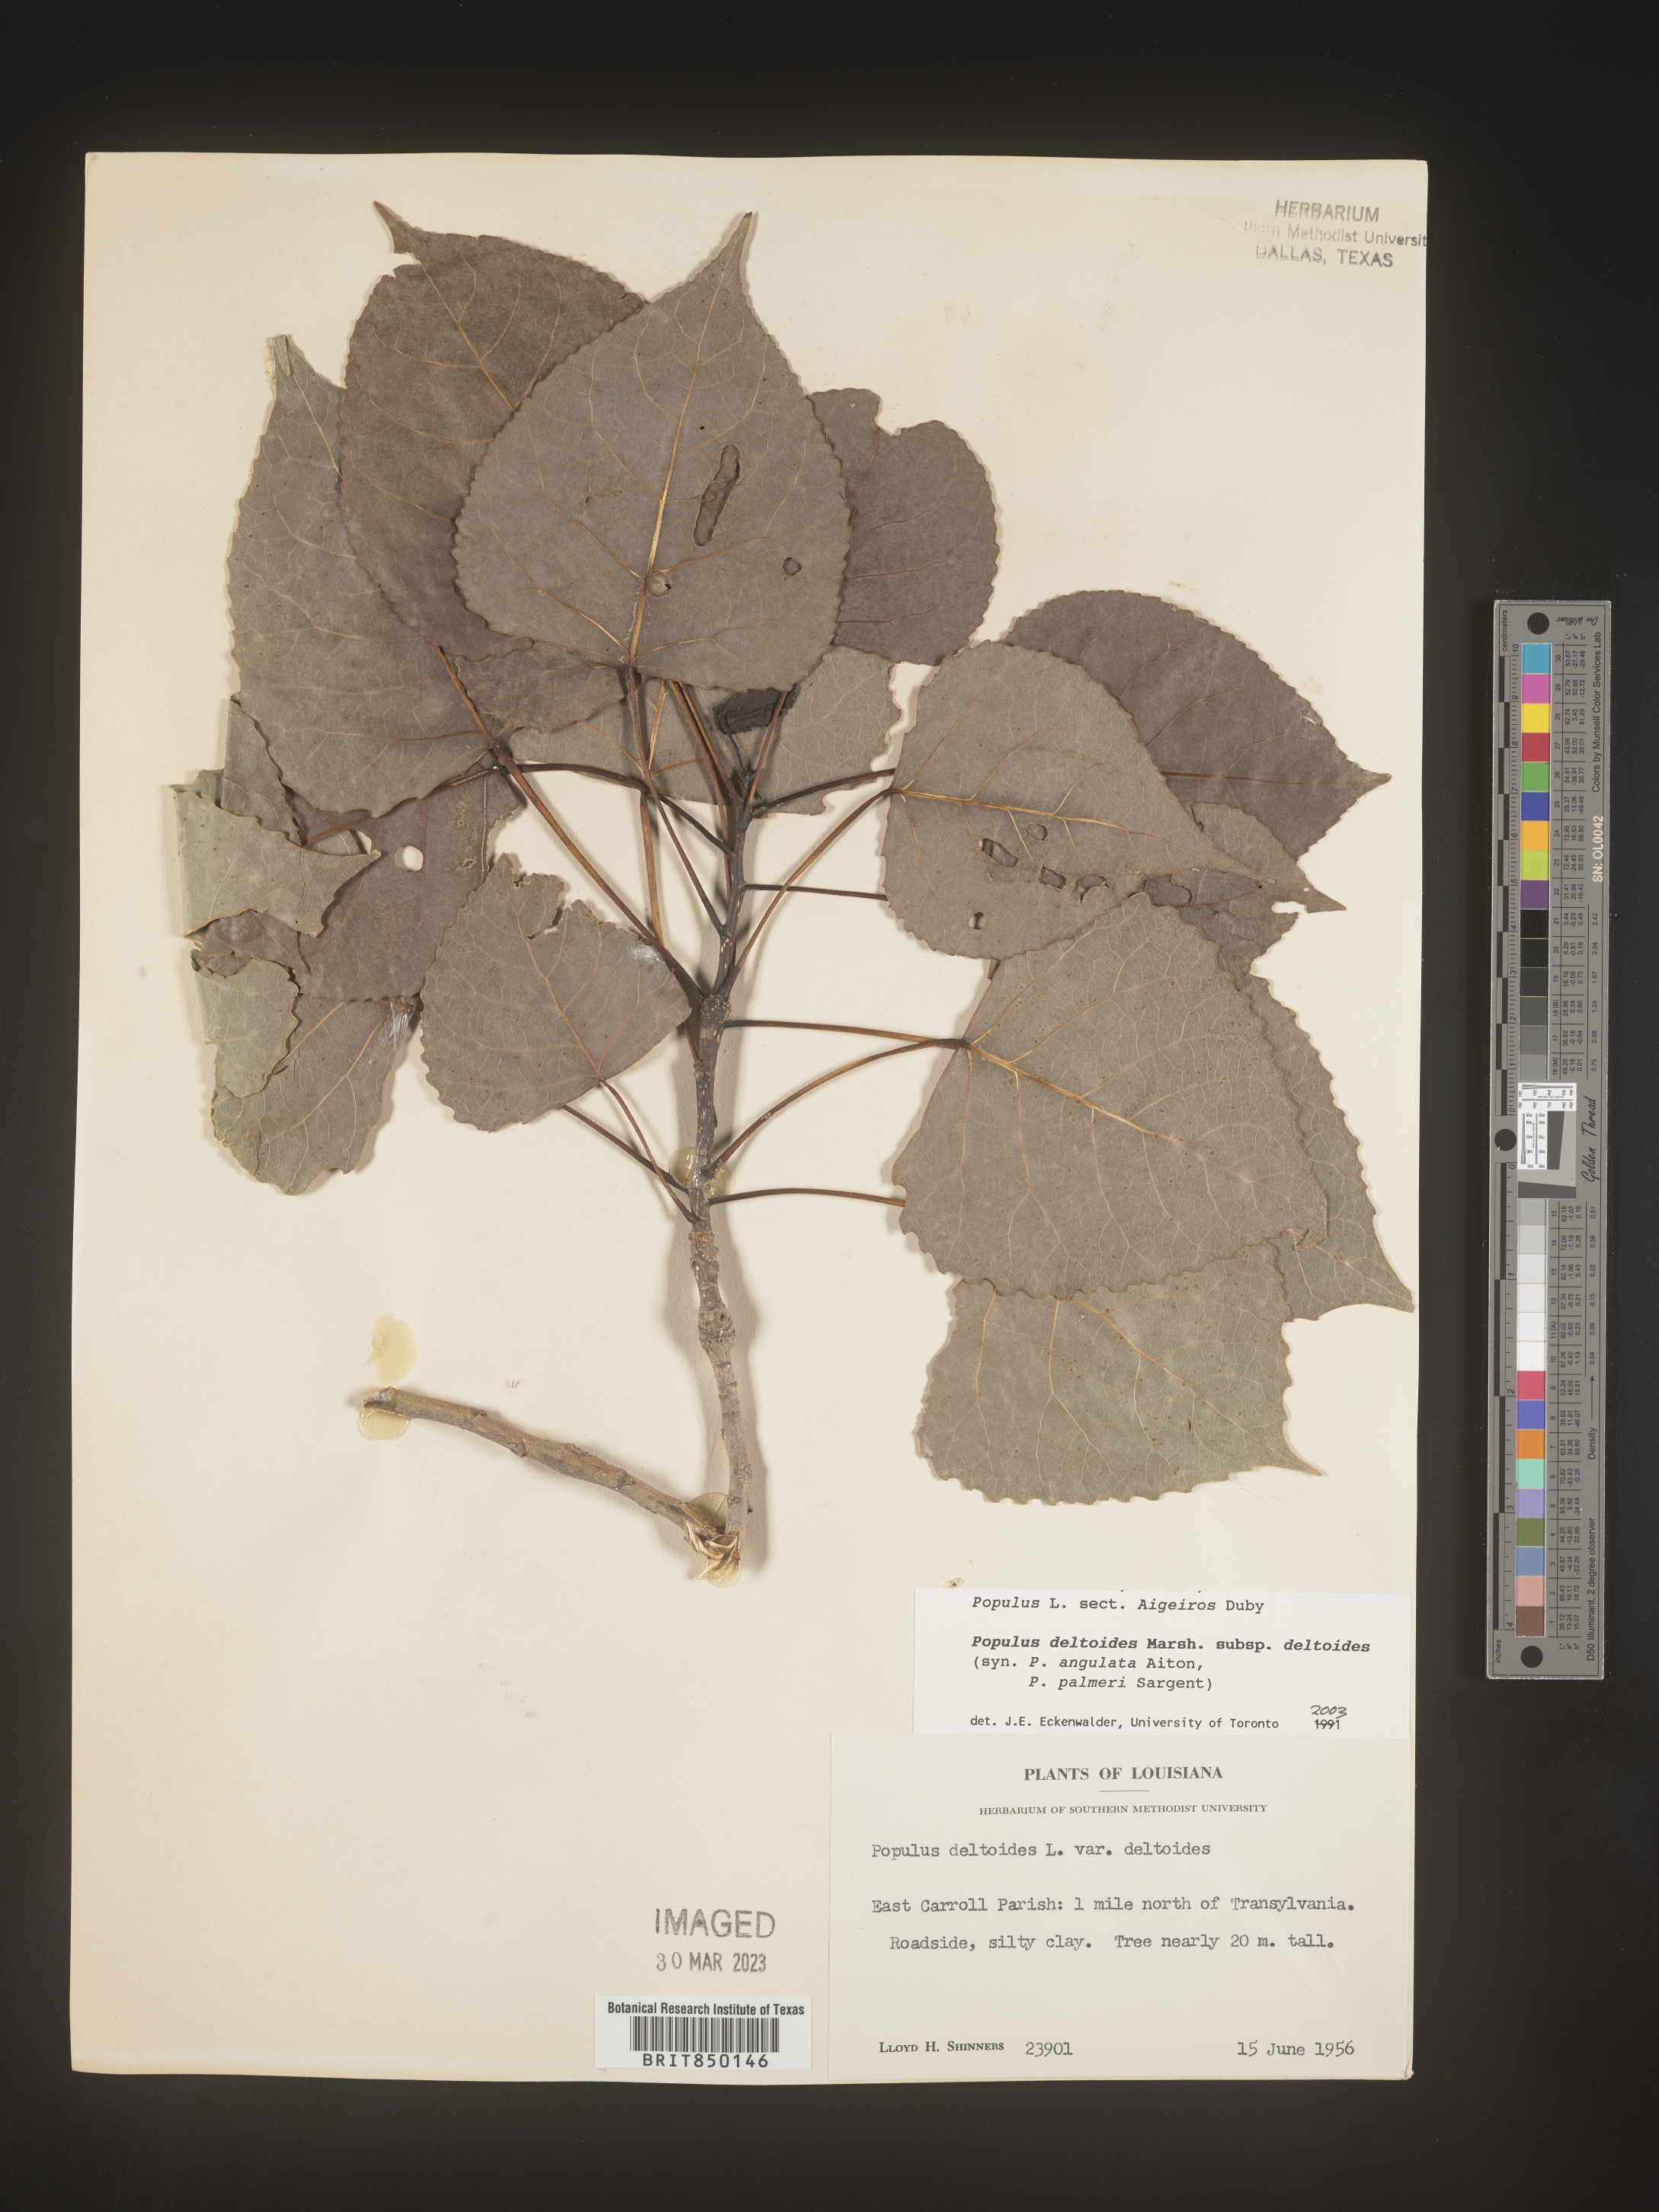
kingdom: Plantae
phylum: Tracheophyta
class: Magnoliopsida
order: Malpighiales
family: Salicaceae
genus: Populus
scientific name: Populus deltoides
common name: Eastern cottonwood
